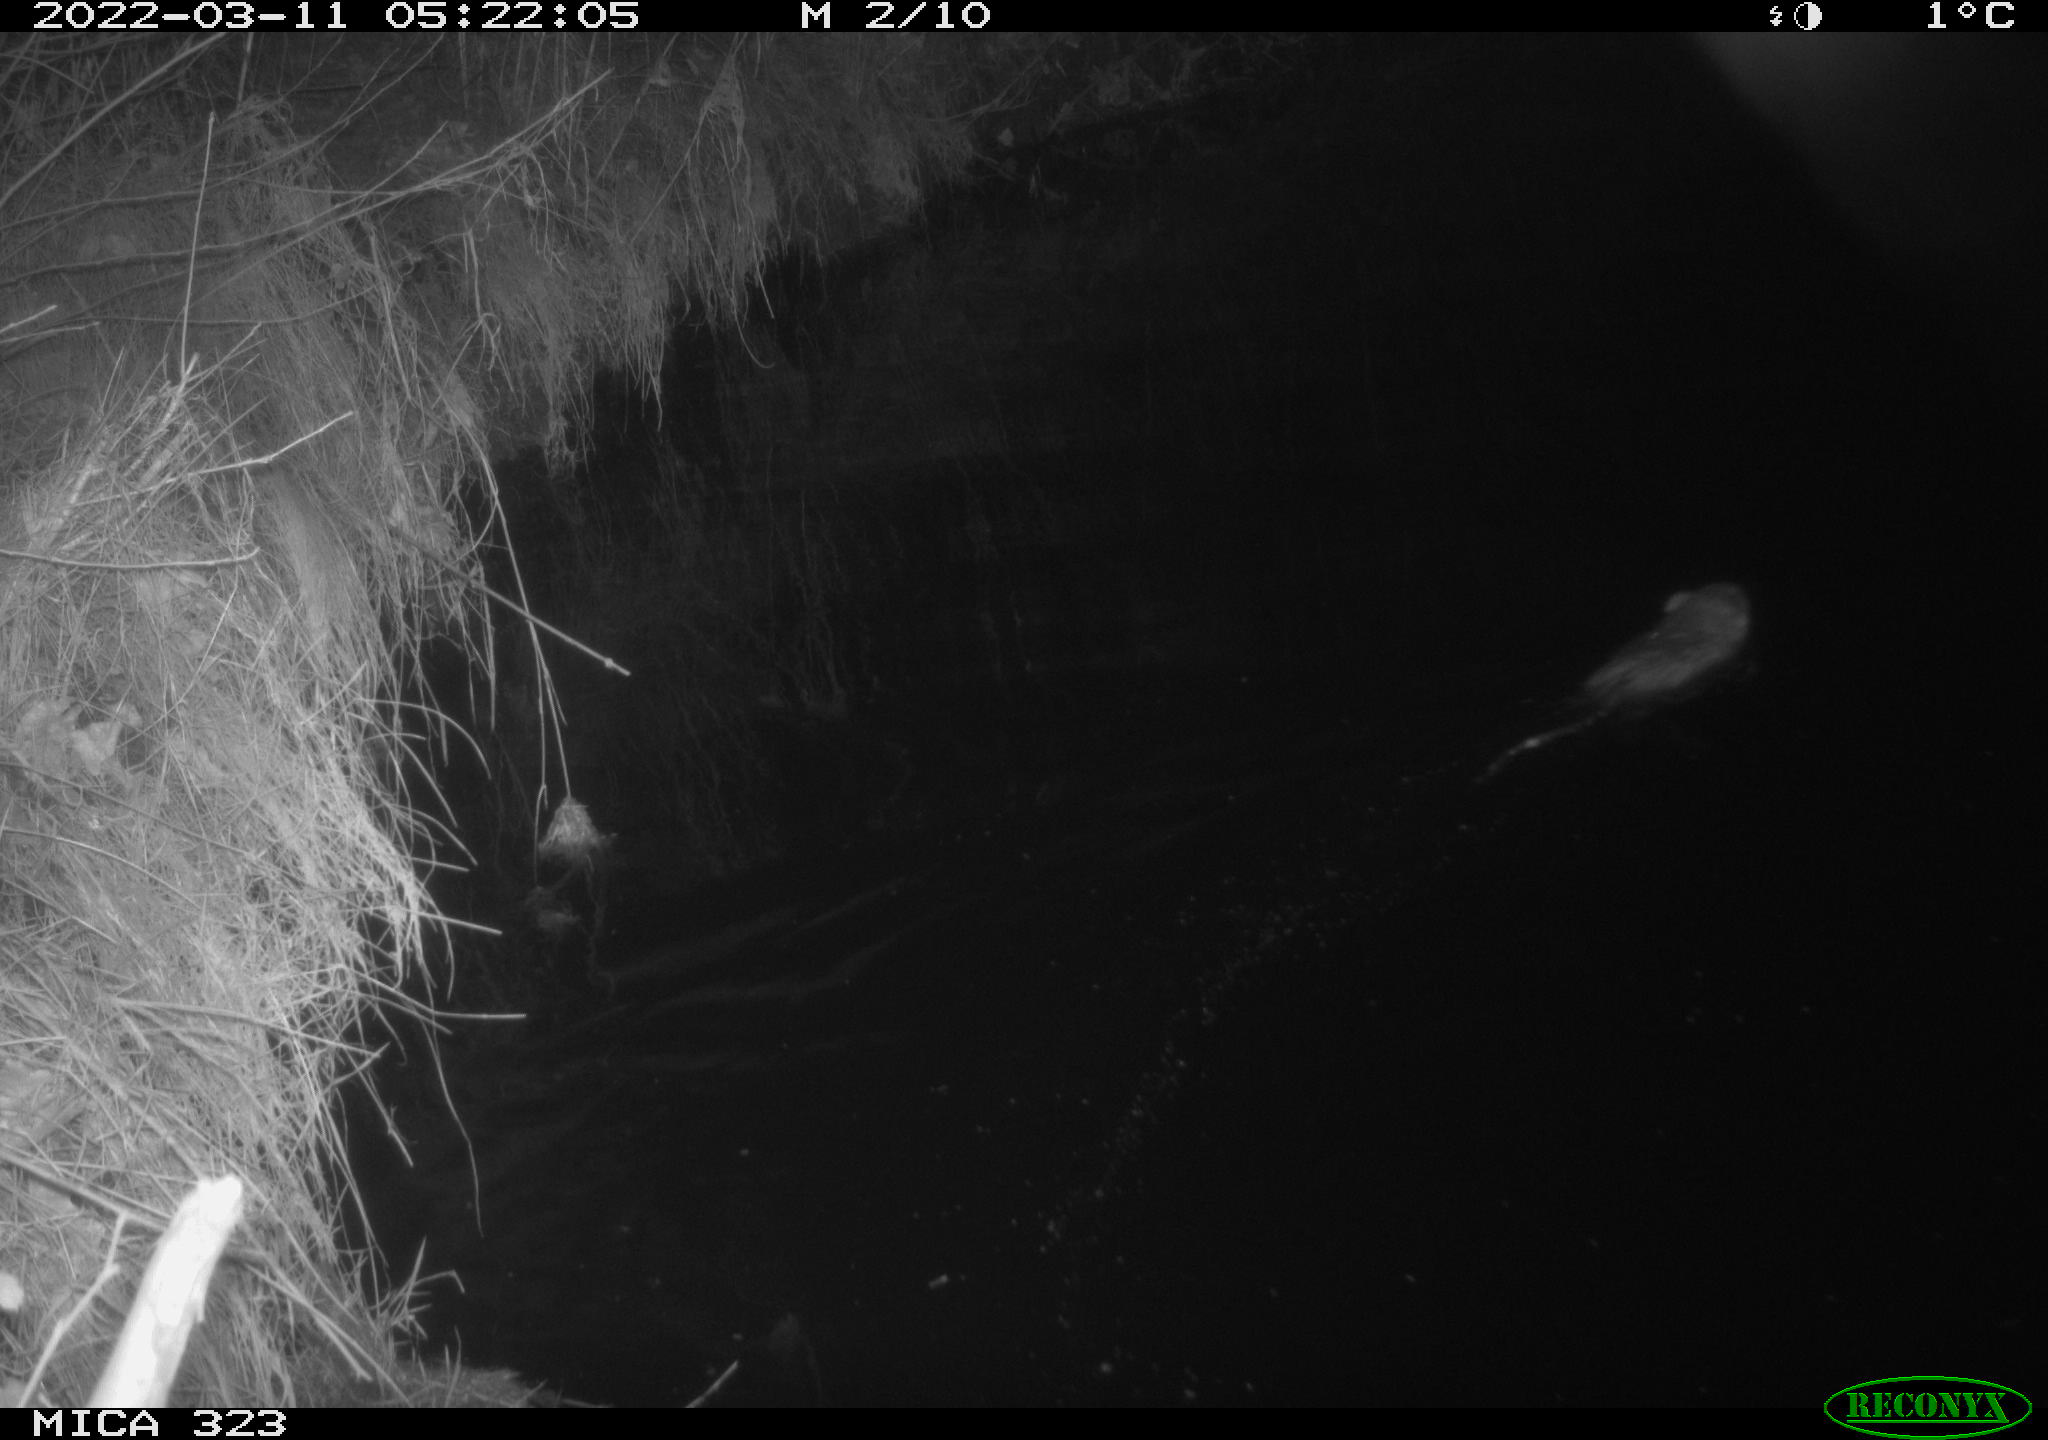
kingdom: Animalia
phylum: Chordata
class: Mammalia
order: Rodentia
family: Cricetidae
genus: Ondatra
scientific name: Ondatra zibethicus
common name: Muskrat
